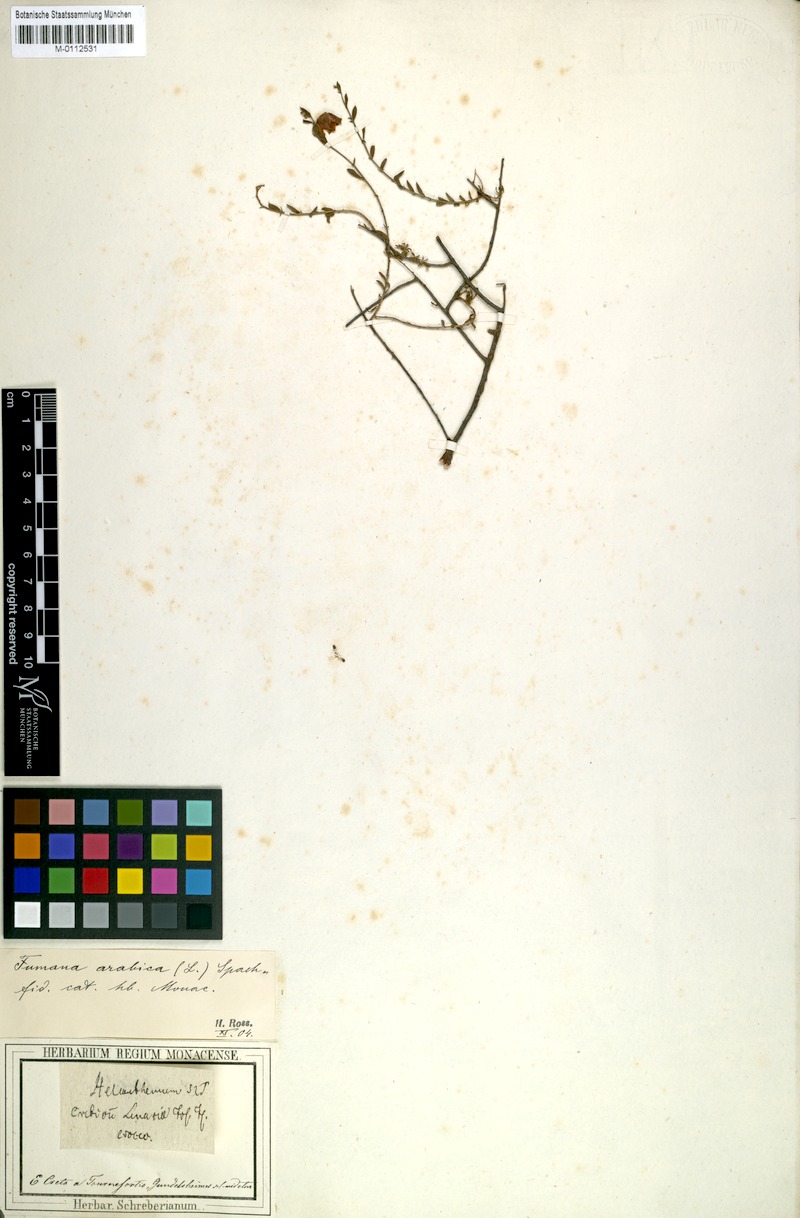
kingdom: Plantae
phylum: Tracheophyta
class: Magnoliopsida
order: Malvales
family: Cistaceae
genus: Fumana
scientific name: Fumana arabica
